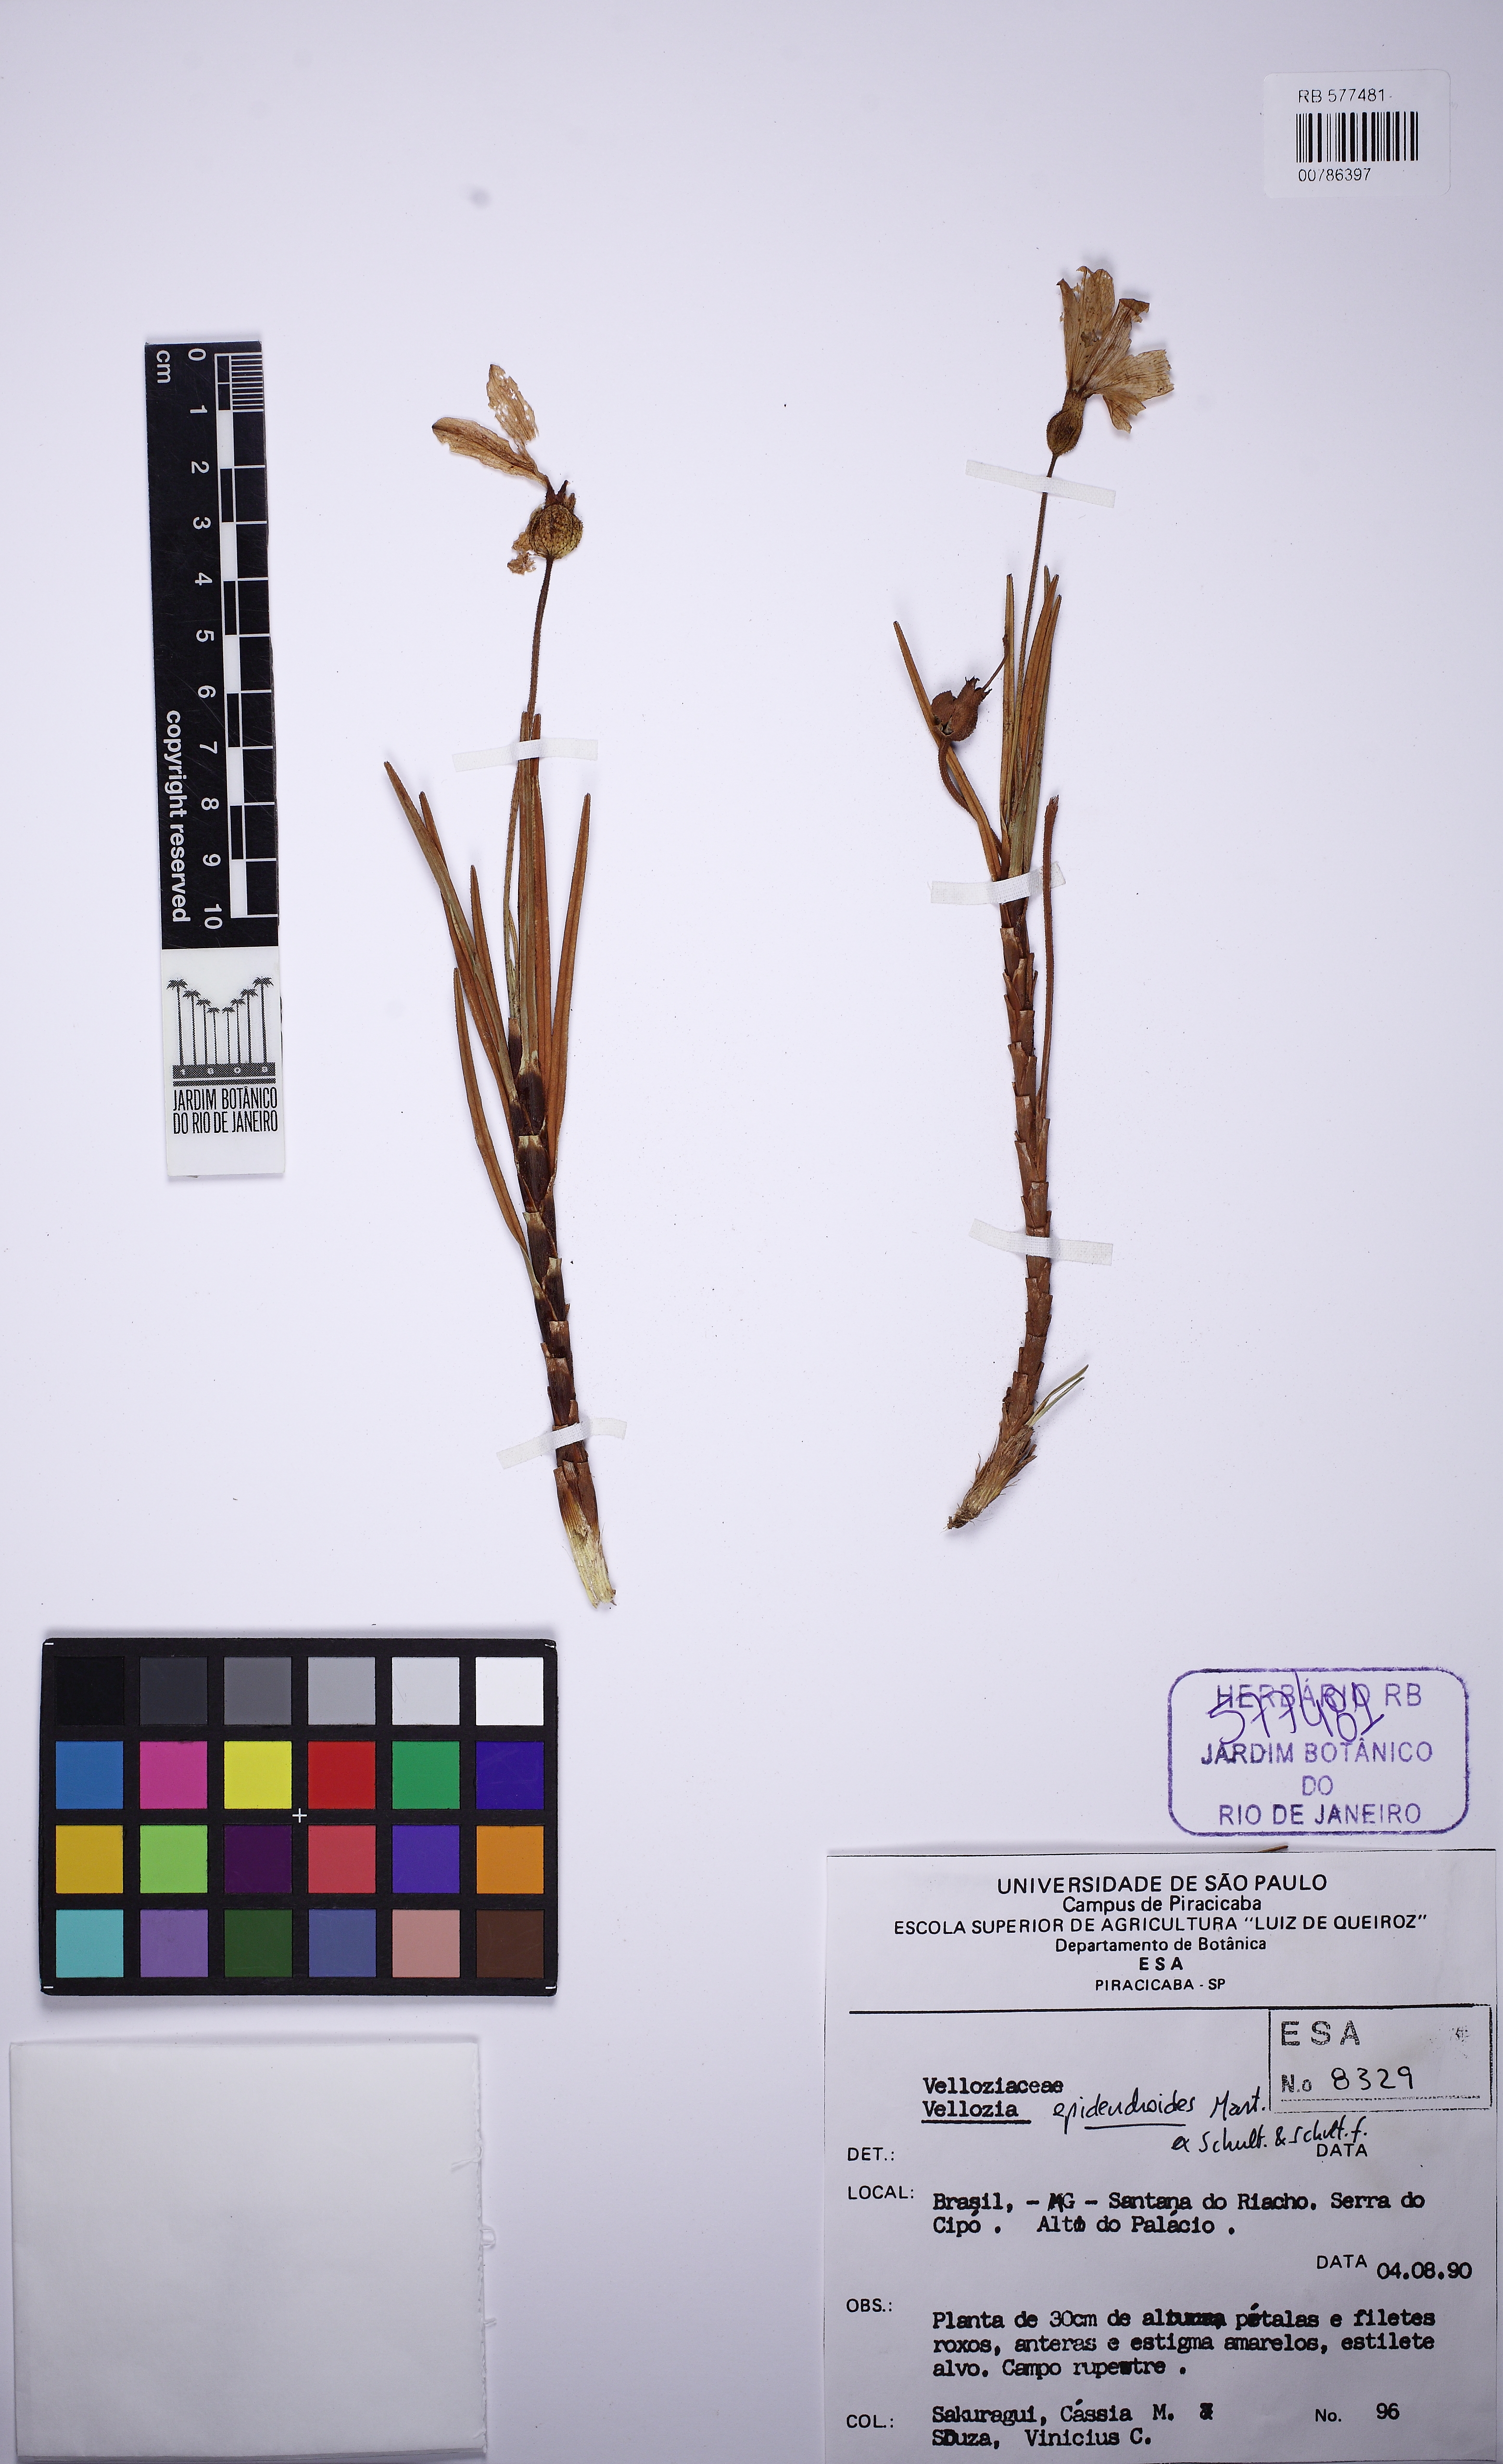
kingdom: Plantae
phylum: Tracheophyta
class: Liliopsida
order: Pandanales
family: Velloziaceae
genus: Vellozia
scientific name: Vellozia epidendroides
